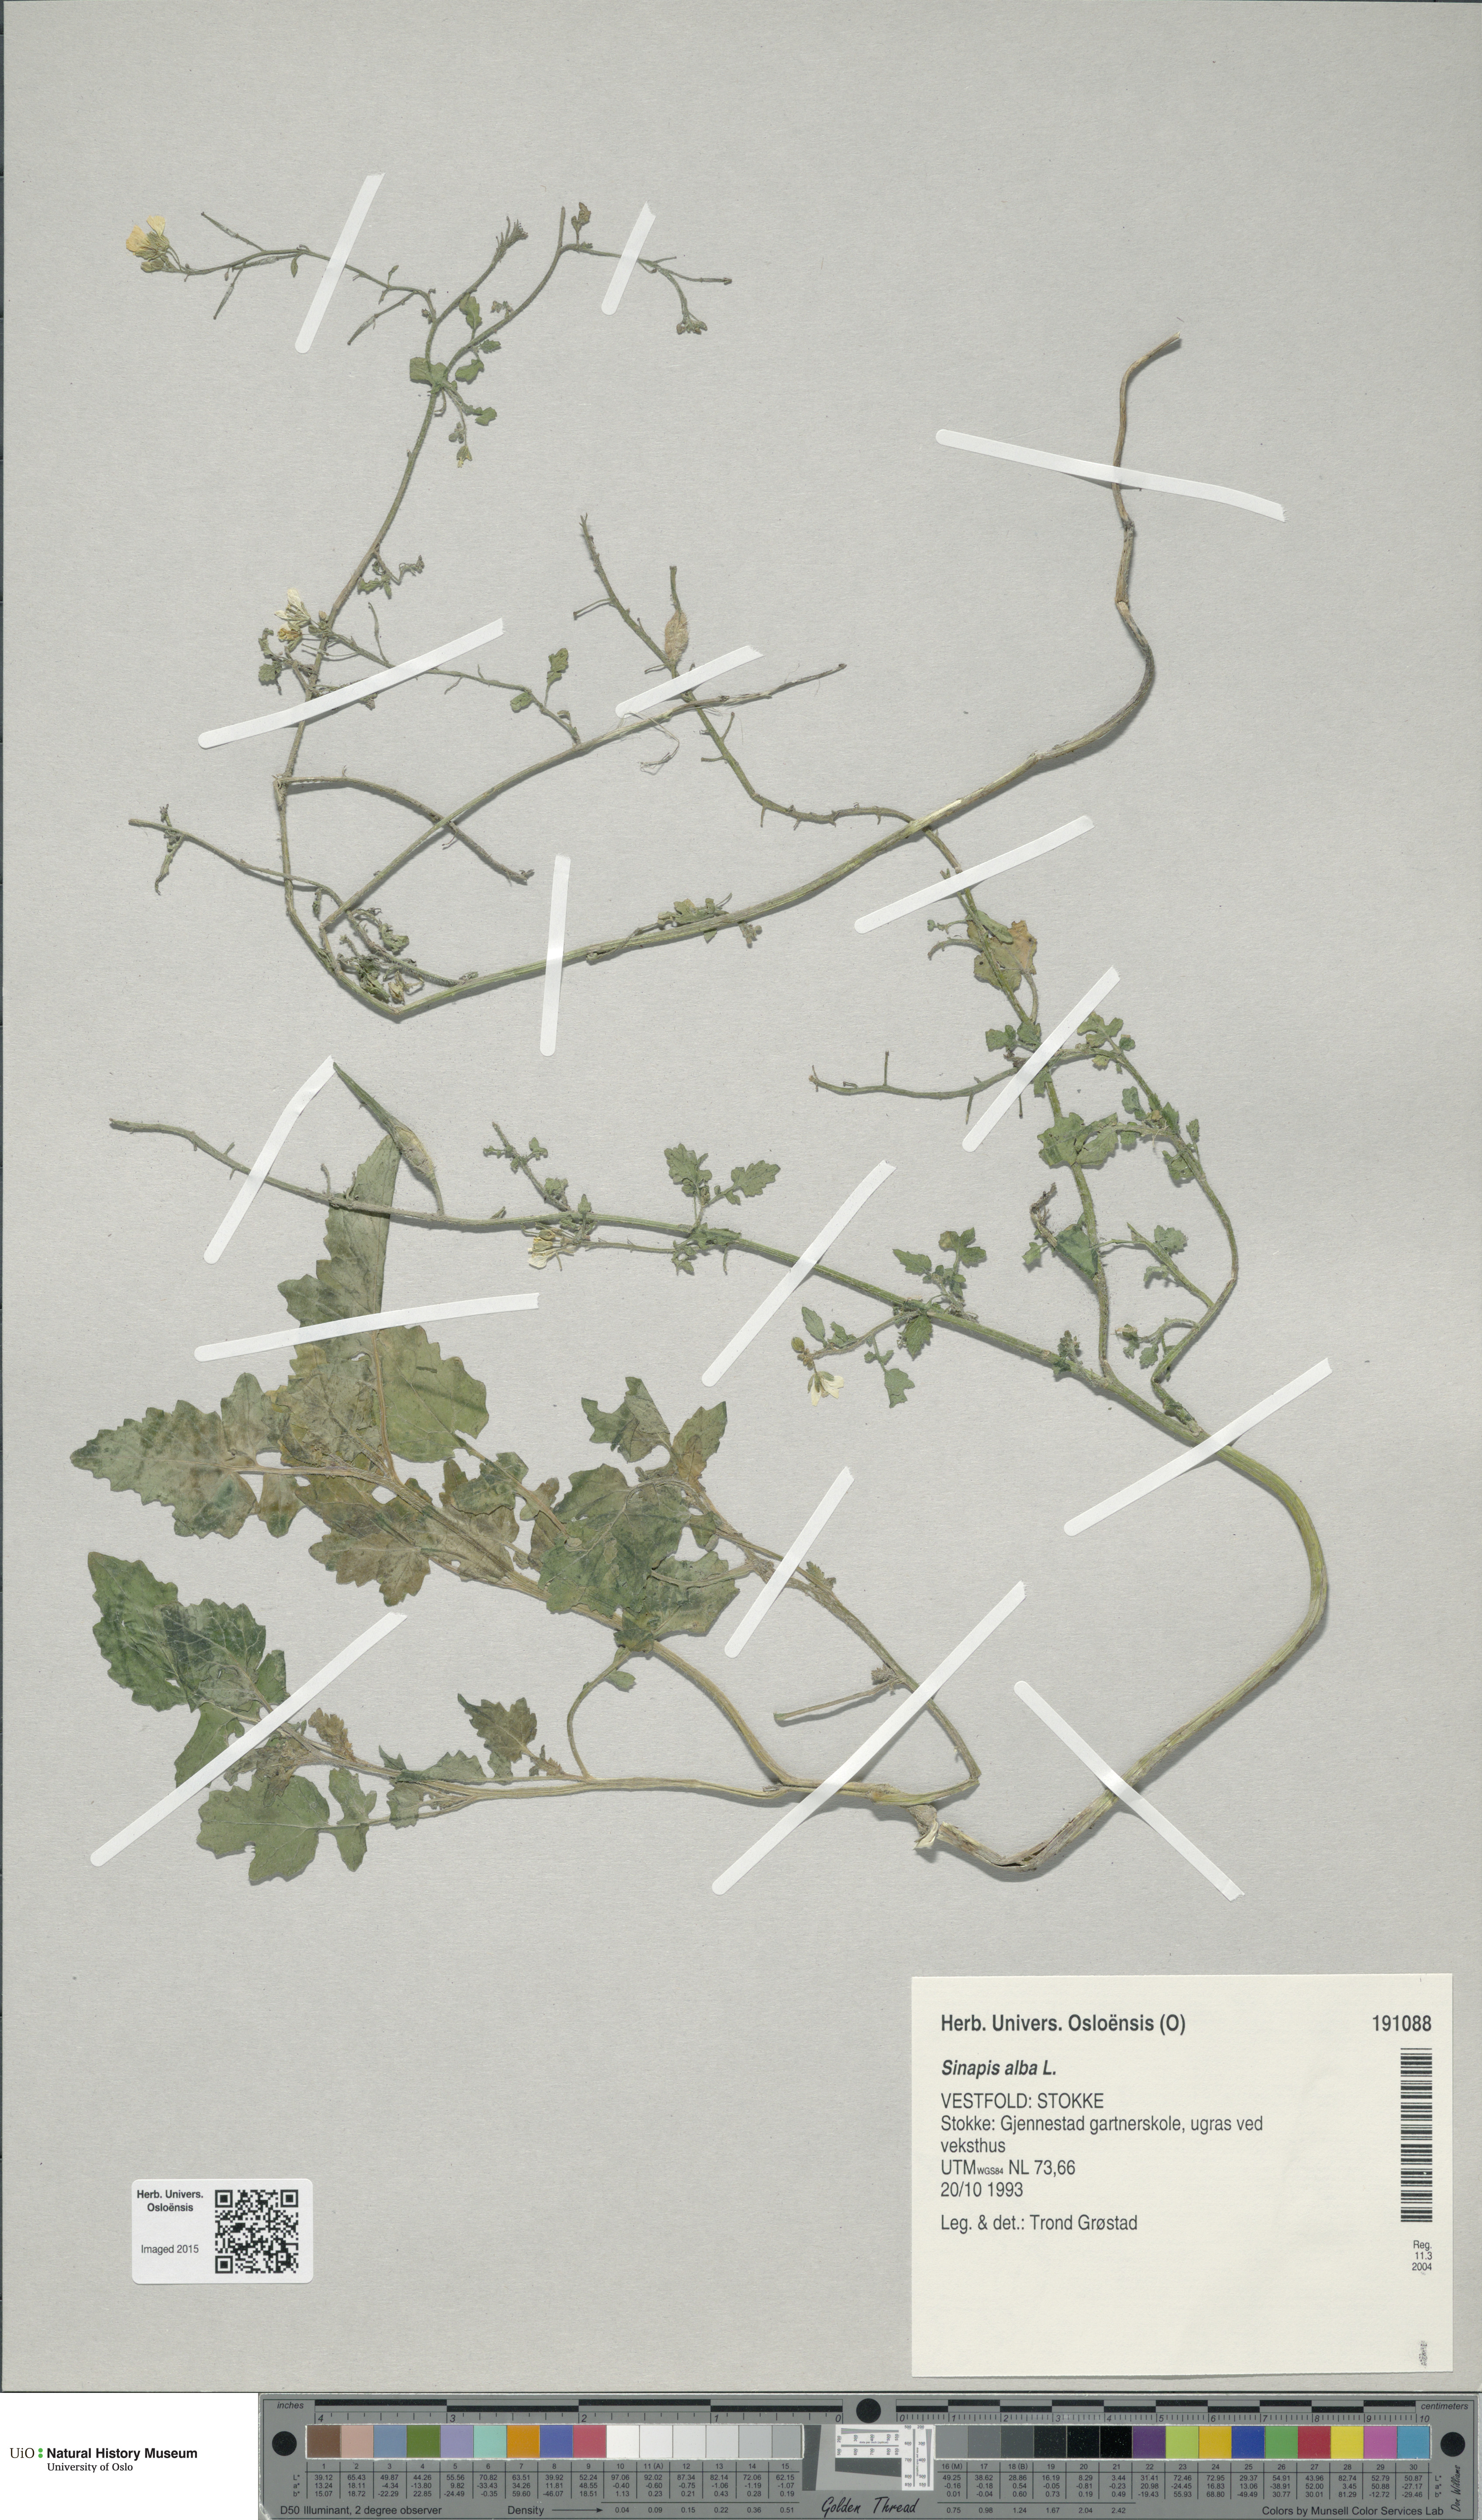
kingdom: Plantae
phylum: Tracheophyta
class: Magnoliopsida
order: Brassicales
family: Brassicaceae
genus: Sinapis
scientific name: Sinapis alba
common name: White mustard
